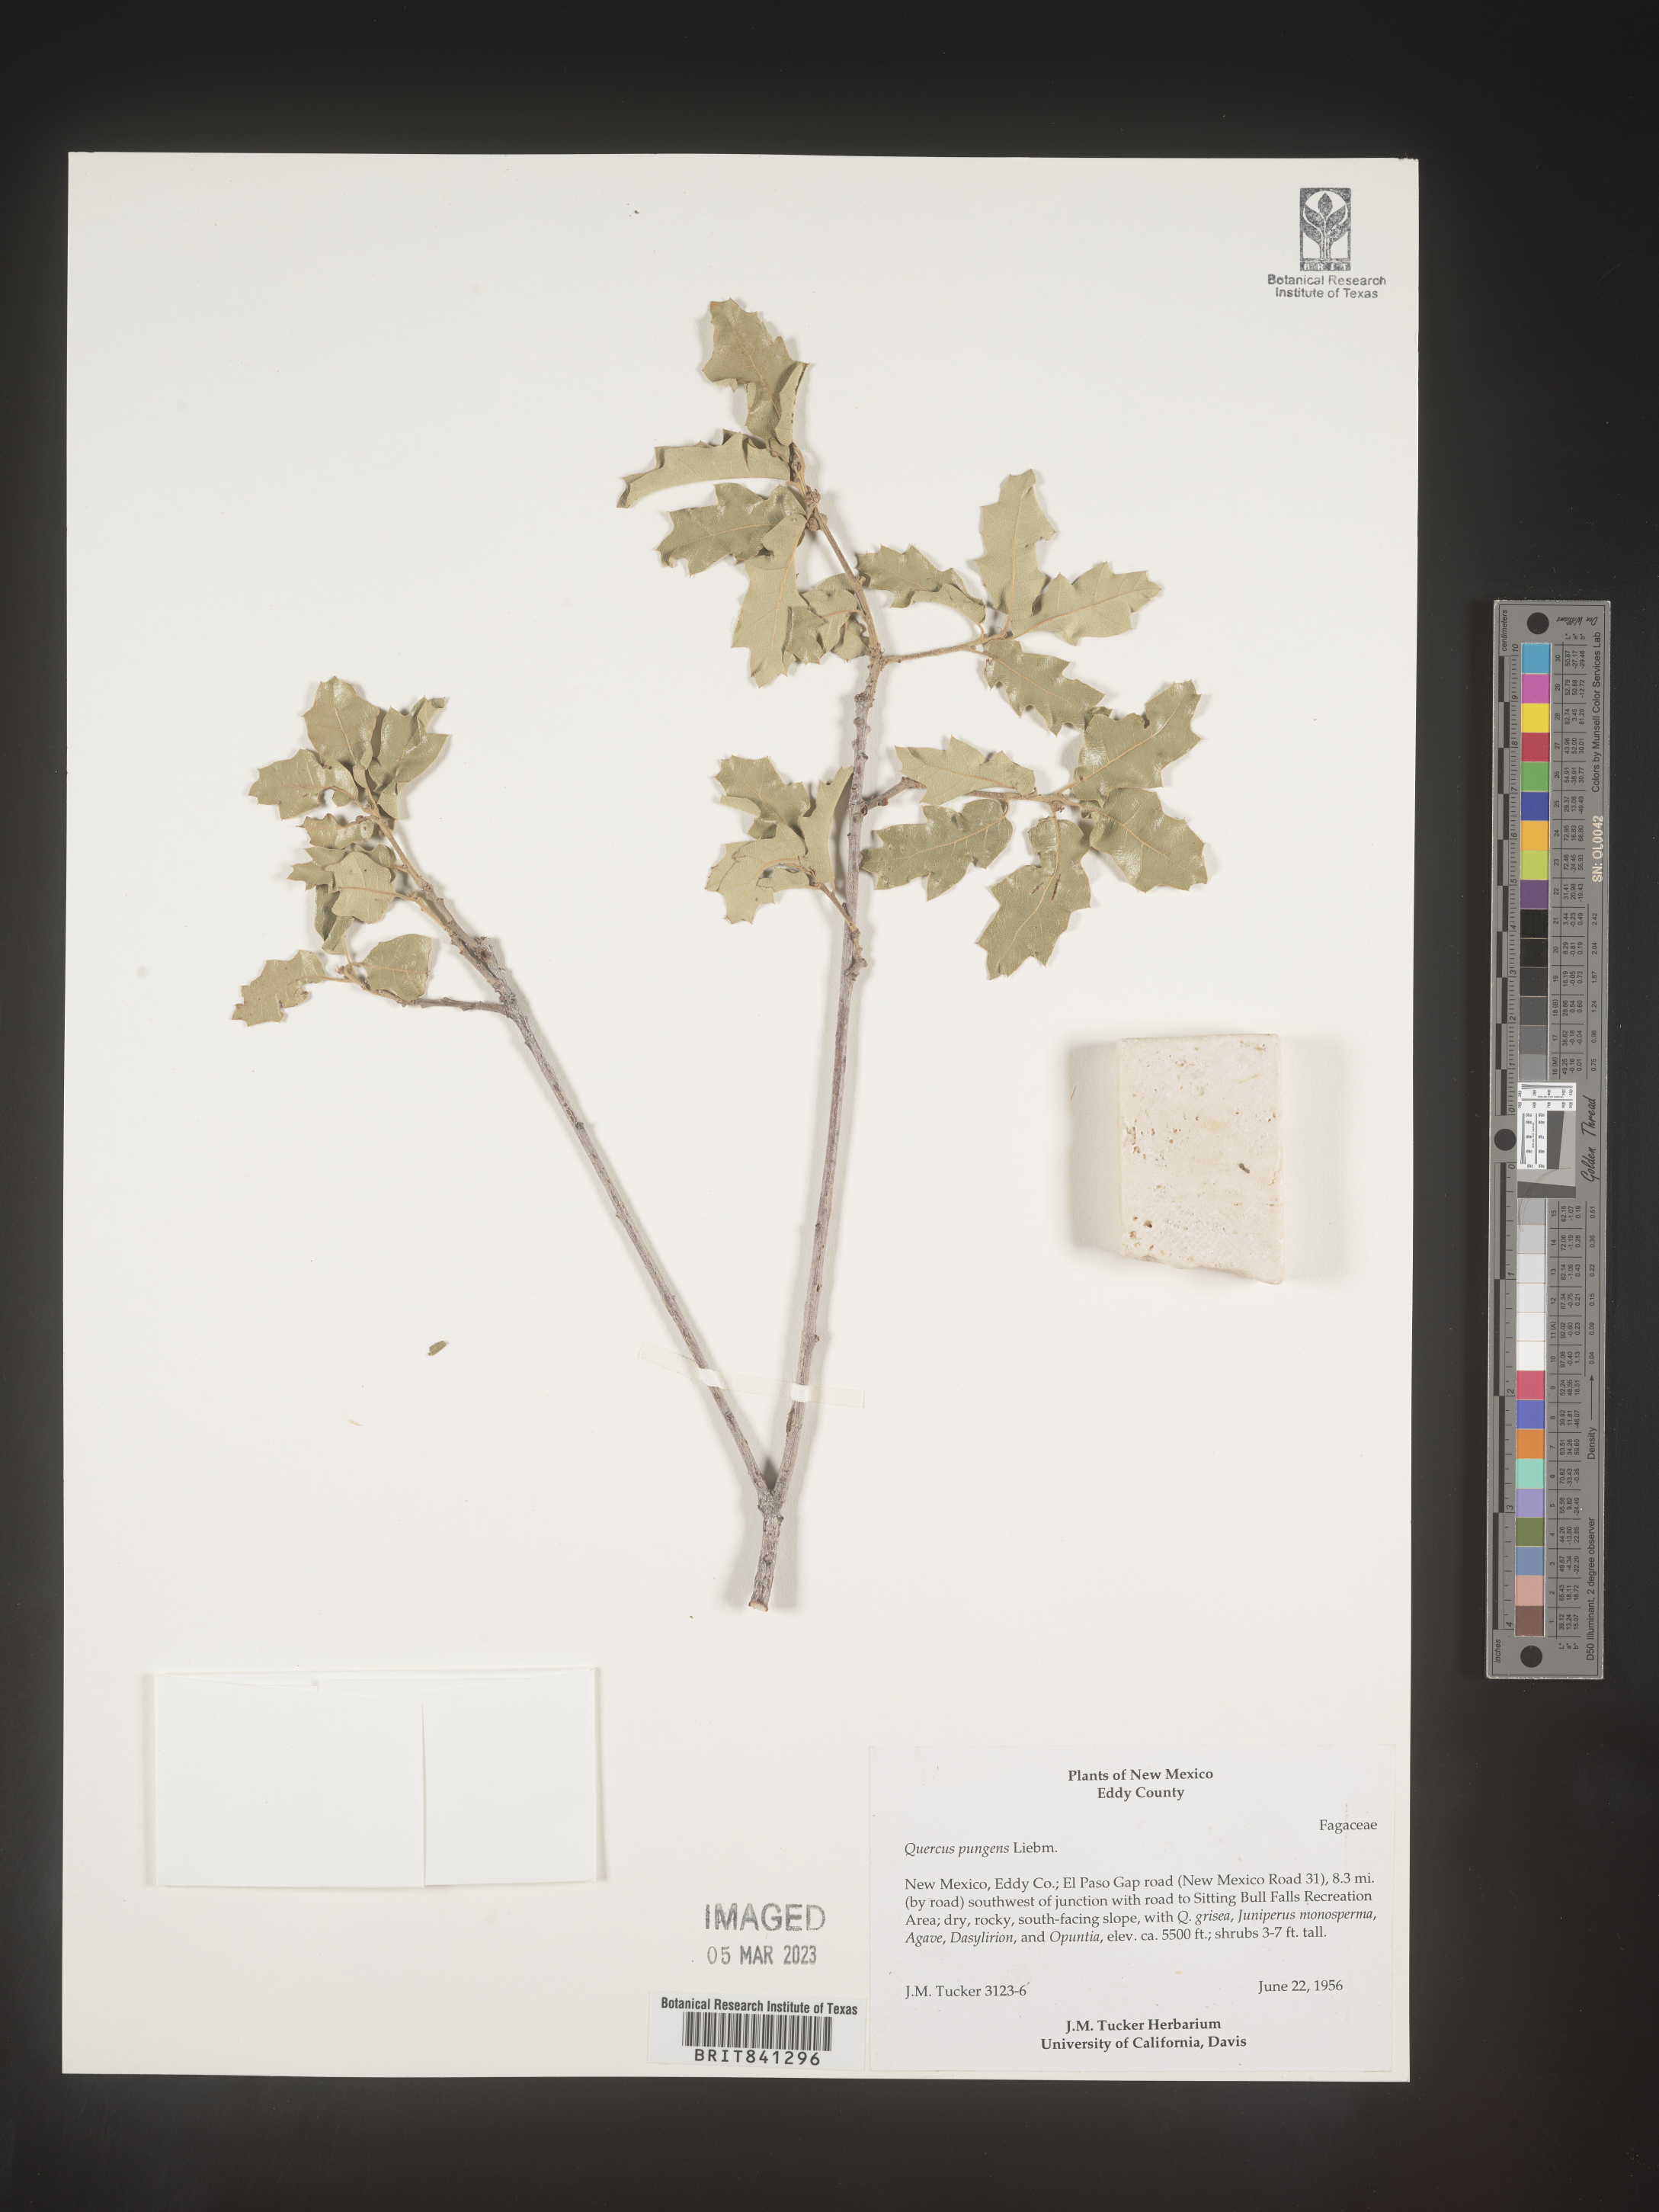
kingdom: Plantae
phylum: Tracheophyta
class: Magnoliopsida
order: Fagales
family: Fagaceae
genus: Quercus
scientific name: Quercus pungens
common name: Pungent oak
